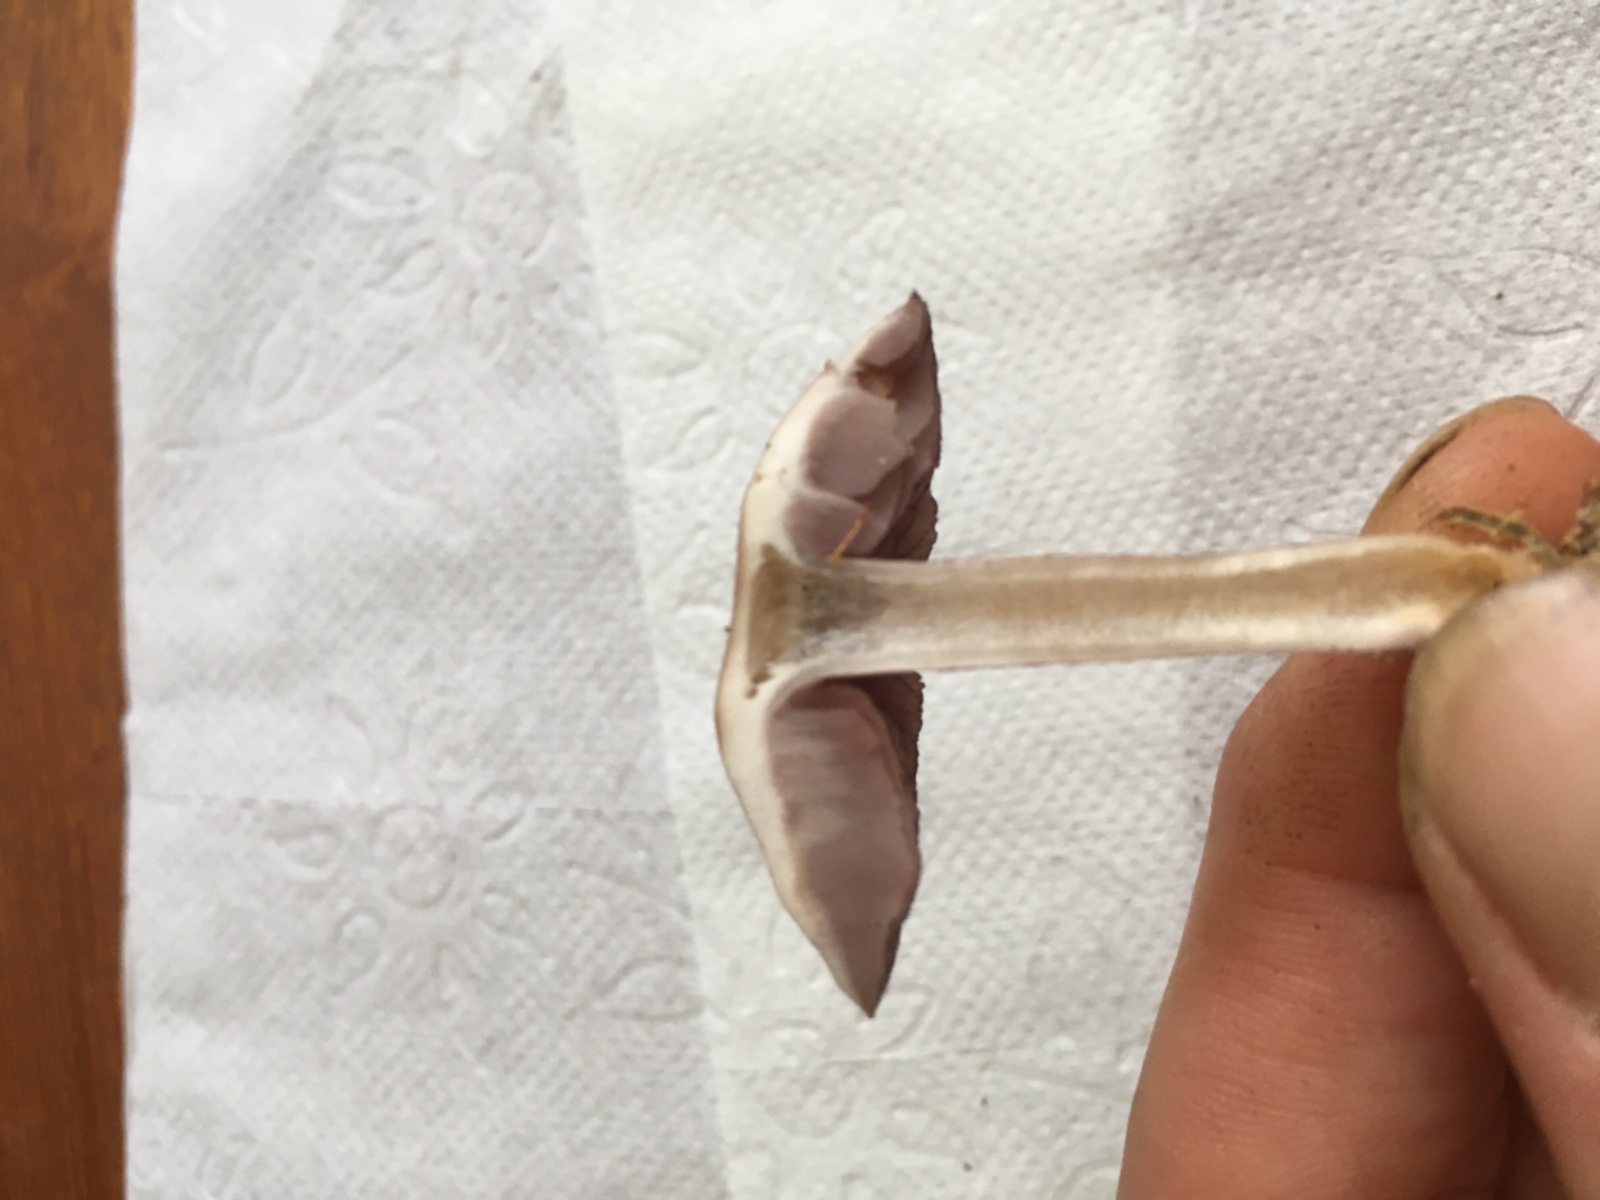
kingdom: Fungi
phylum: Basidiomycota
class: Agaricomycetes
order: Agaricales
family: Mycenaceae
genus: Mycena
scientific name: Mycena pelianthina
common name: mørkbladet huesvamp
